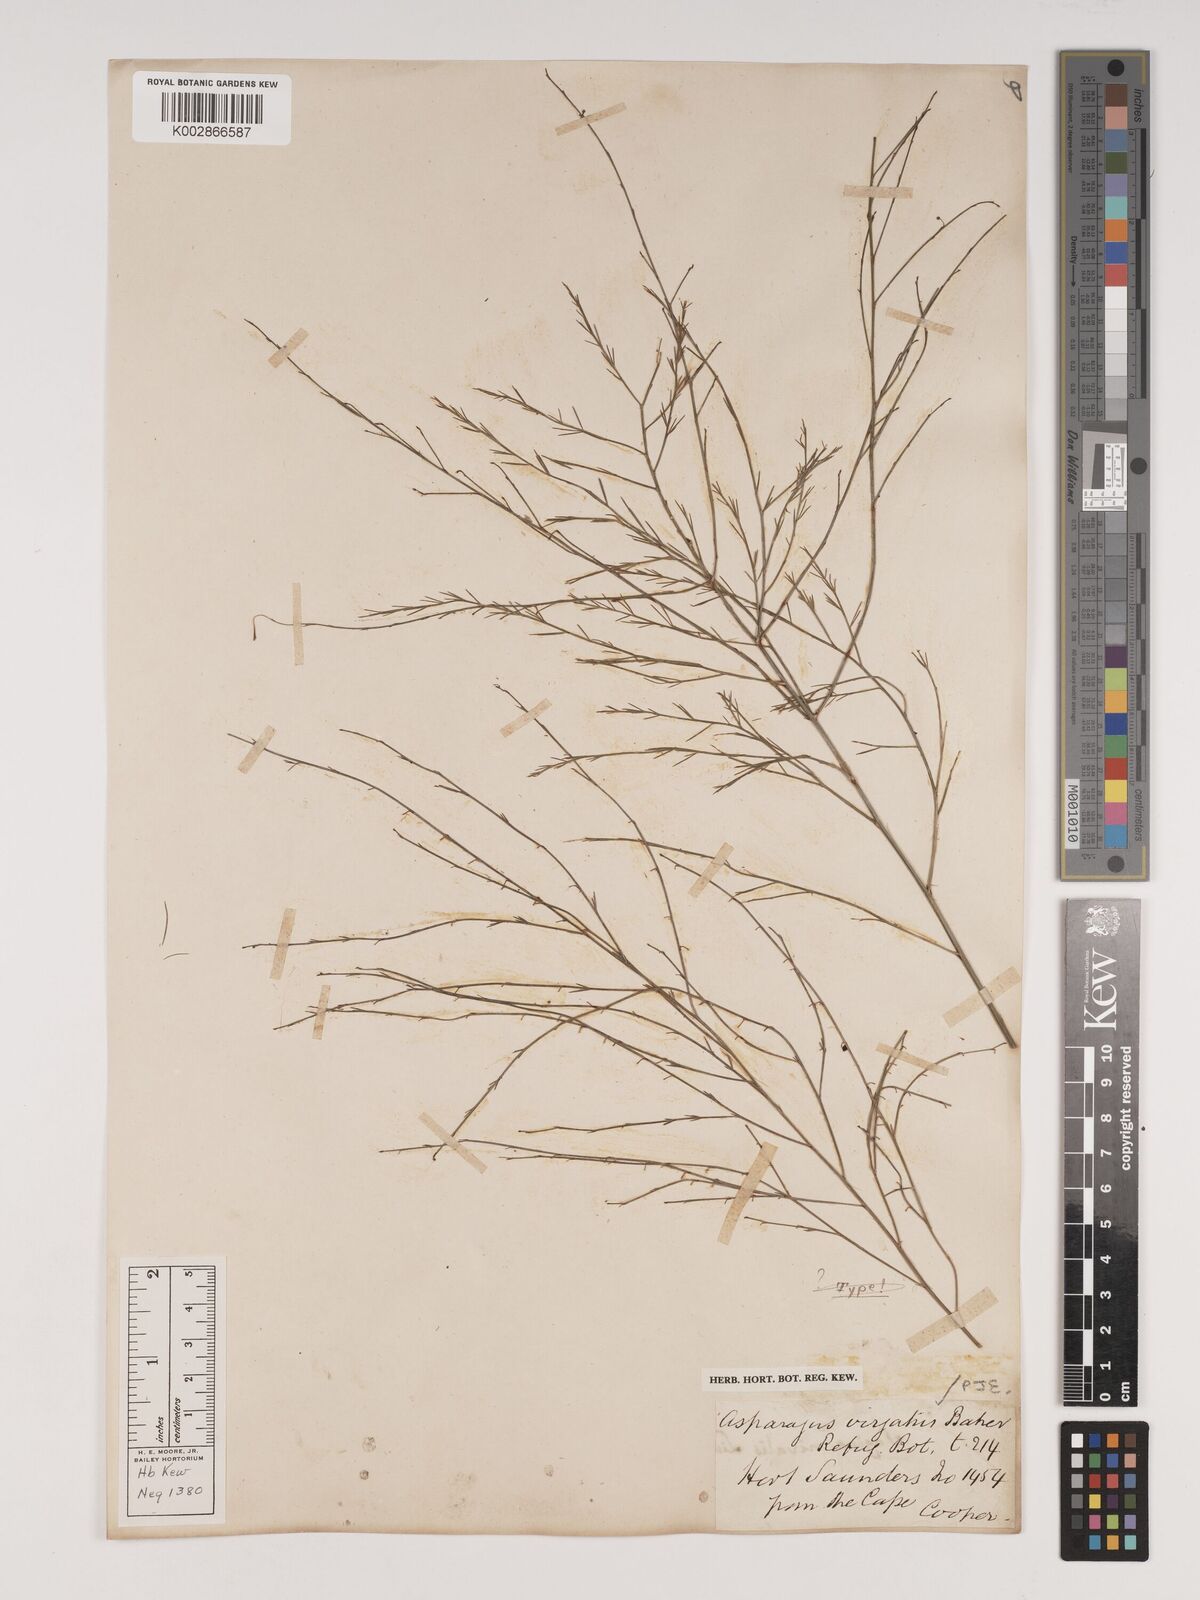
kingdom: Plantae
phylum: Tracheophyta
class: Liliopsida
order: Asparagales
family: Asparagaceae
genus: Asparagus
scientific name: Asparagus virgatus
